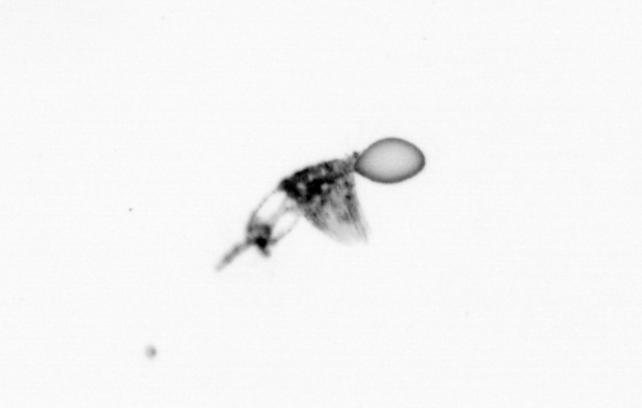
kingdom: Animalia
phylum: Arthropoda
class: Copepoda
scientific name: Copepoda
